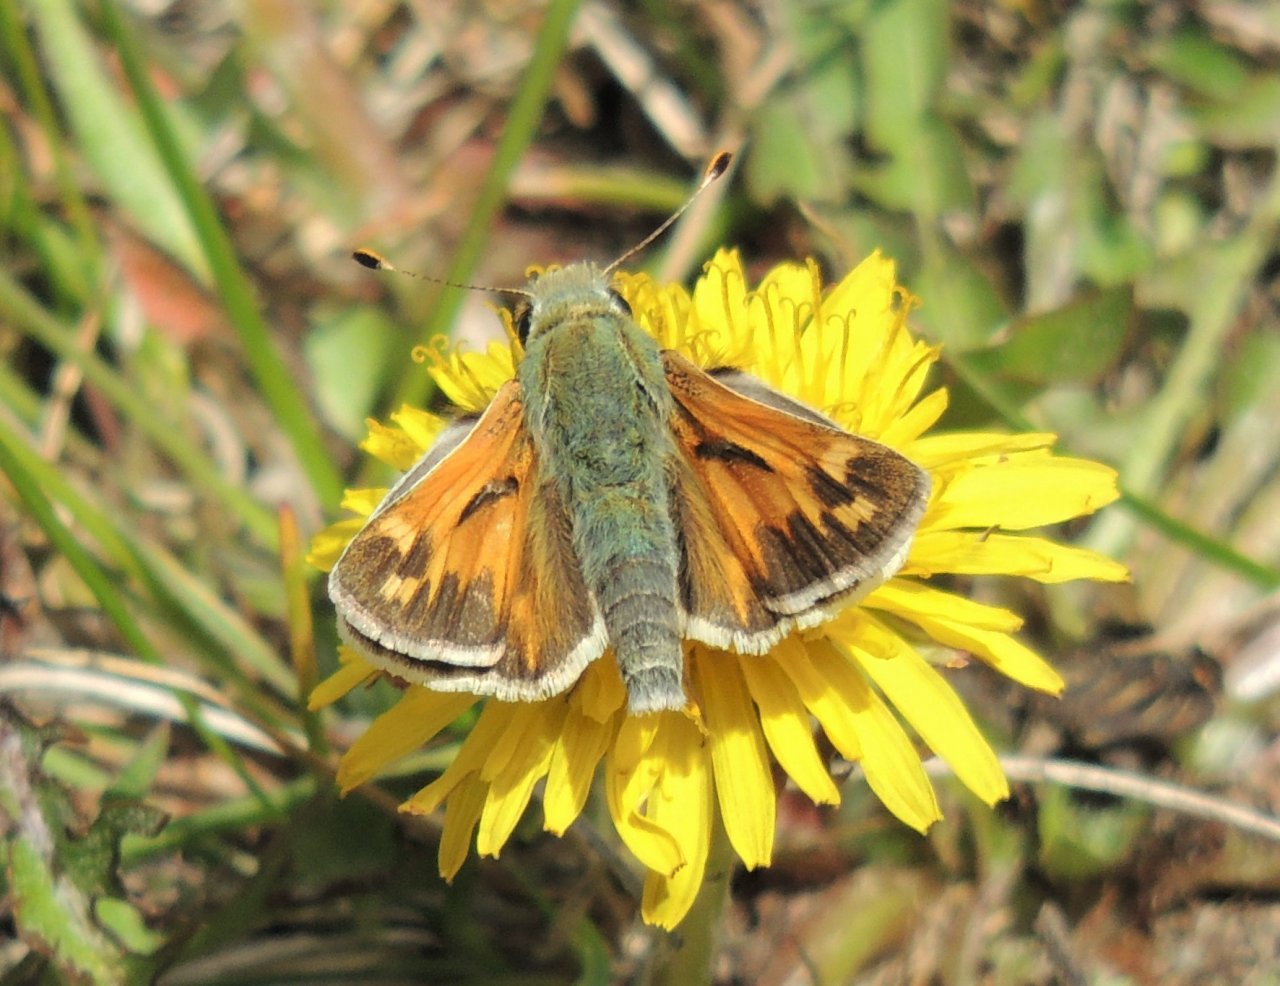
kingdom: Animalia
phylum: Arthropoda
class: Insecta
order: Lepidoptera
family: Hesperiidae
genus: Hesperia
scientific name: Hesperia juba
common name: Juba Skipper
